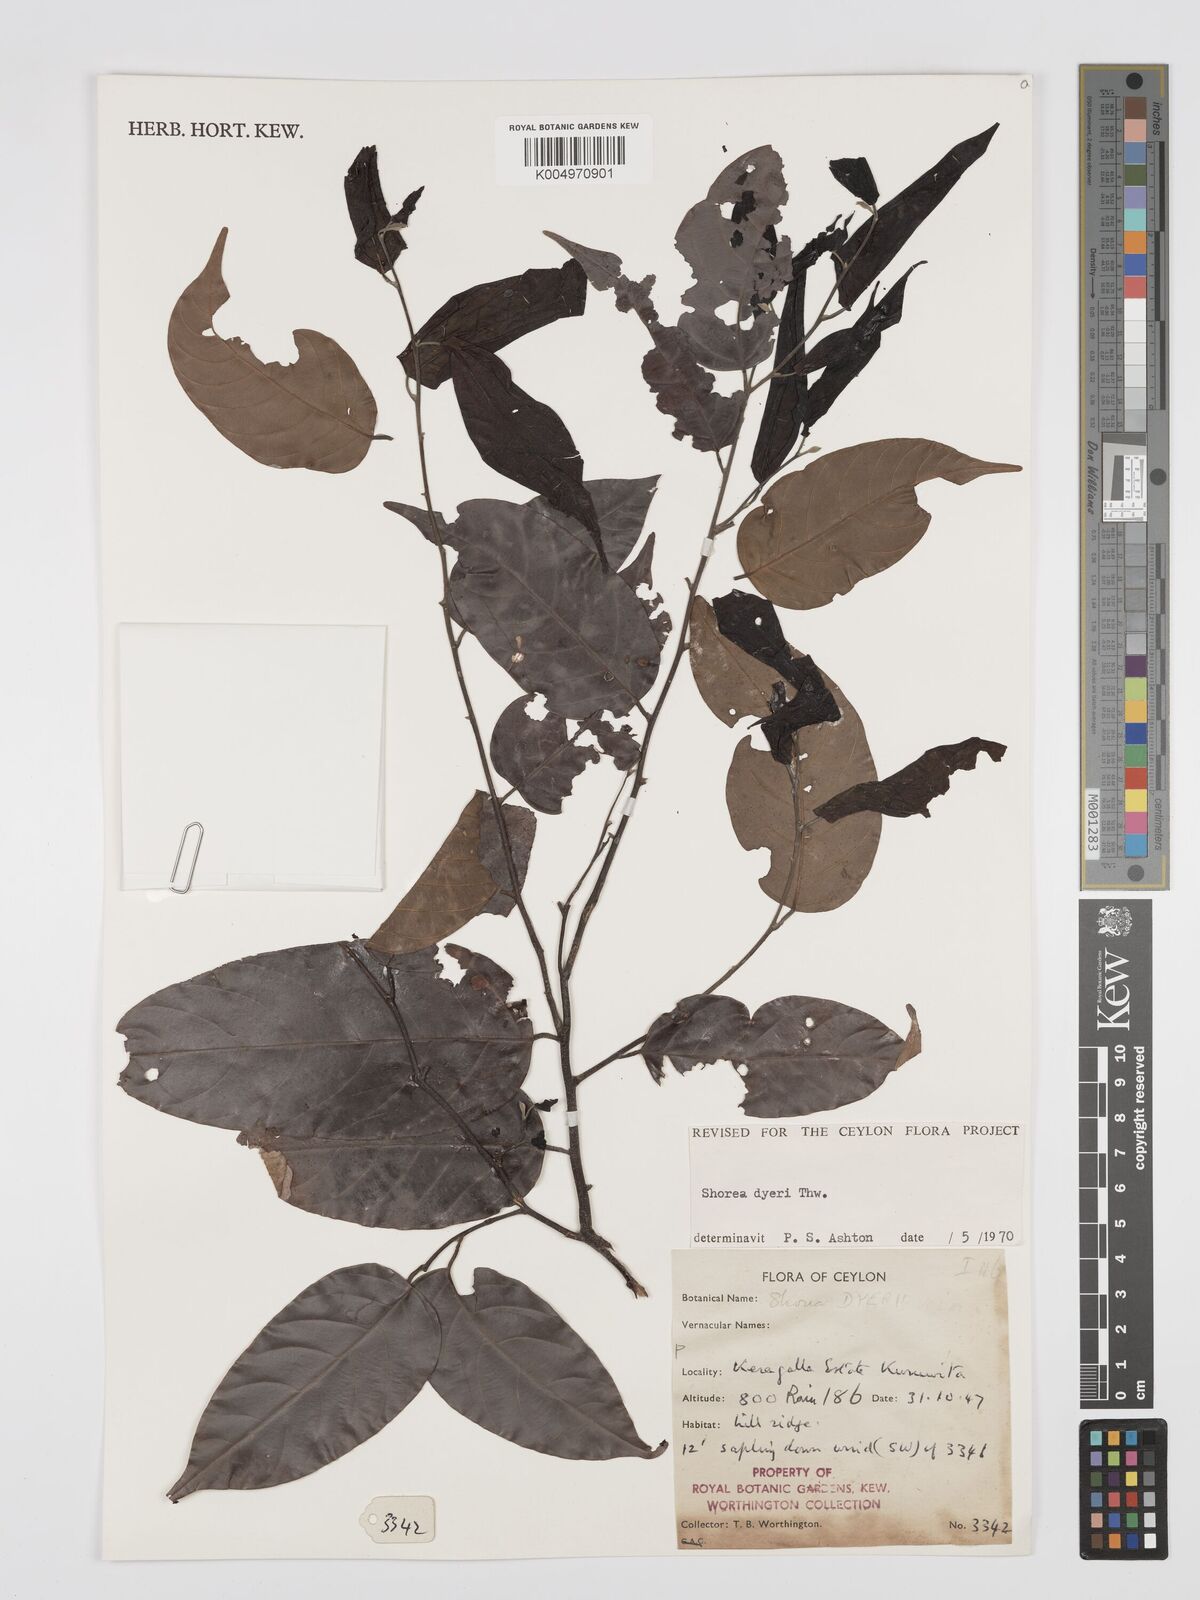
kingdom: Plantae
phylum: Tracheophyta
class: Magnoliopsida
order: Malvales
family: Dipterocarpaceae
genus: Shorea
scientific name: Shorea dyeri
